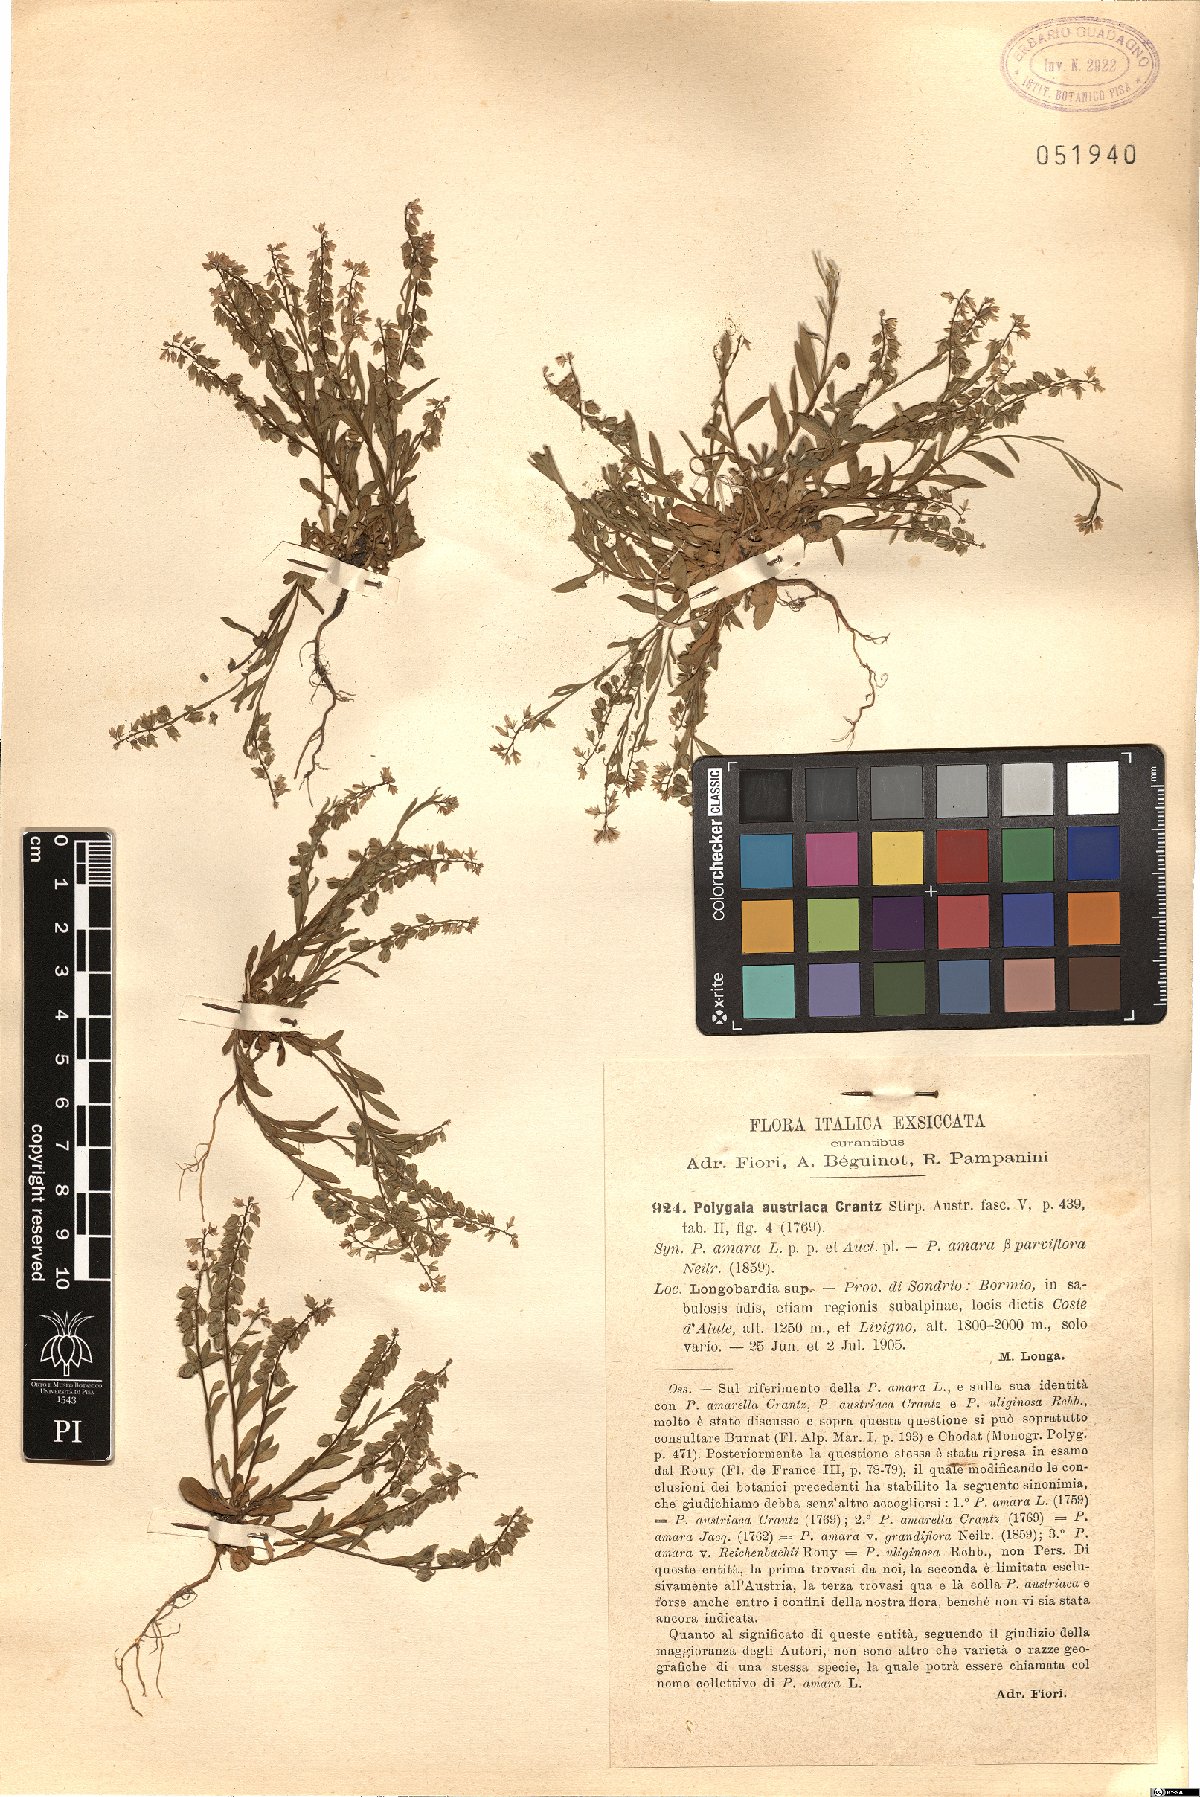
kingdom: Plantae
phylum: Tracheophyta
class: Magnoliopsida
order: Fabales
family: Polygalaceae
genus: Polygala
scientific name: Polygala amarella
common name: Dwarf milkwort
